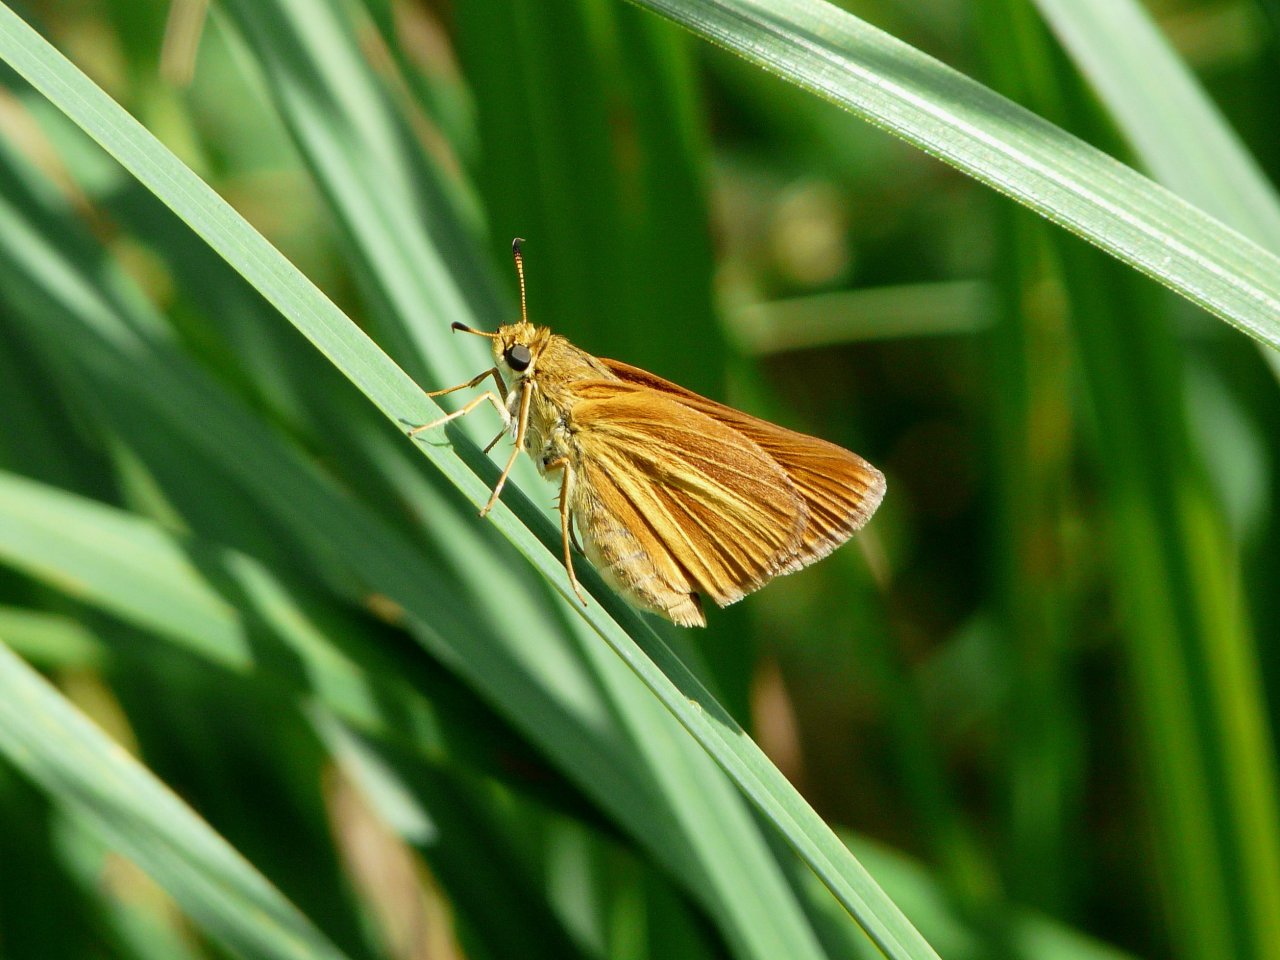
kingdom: Animalia
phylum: Arthropoda
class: Insecta
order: Lepidoptera
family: Hesperiidae
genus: Euphyes
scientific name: Euphyes dion
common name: Dion Skipper
